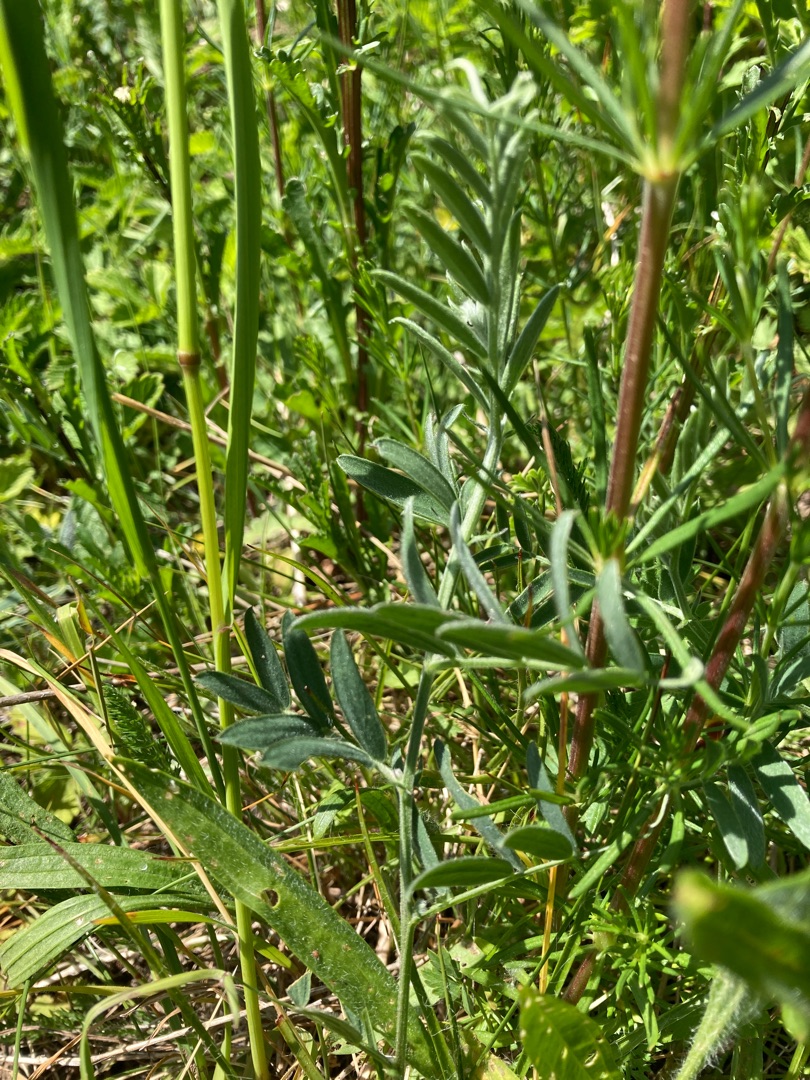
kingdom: Plantae
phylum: Tracheophyta
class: Magnoliopsida
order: Fabales
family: Fabaceae
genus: Vicia
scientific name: Vicia cracca
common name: Muse-vikke
